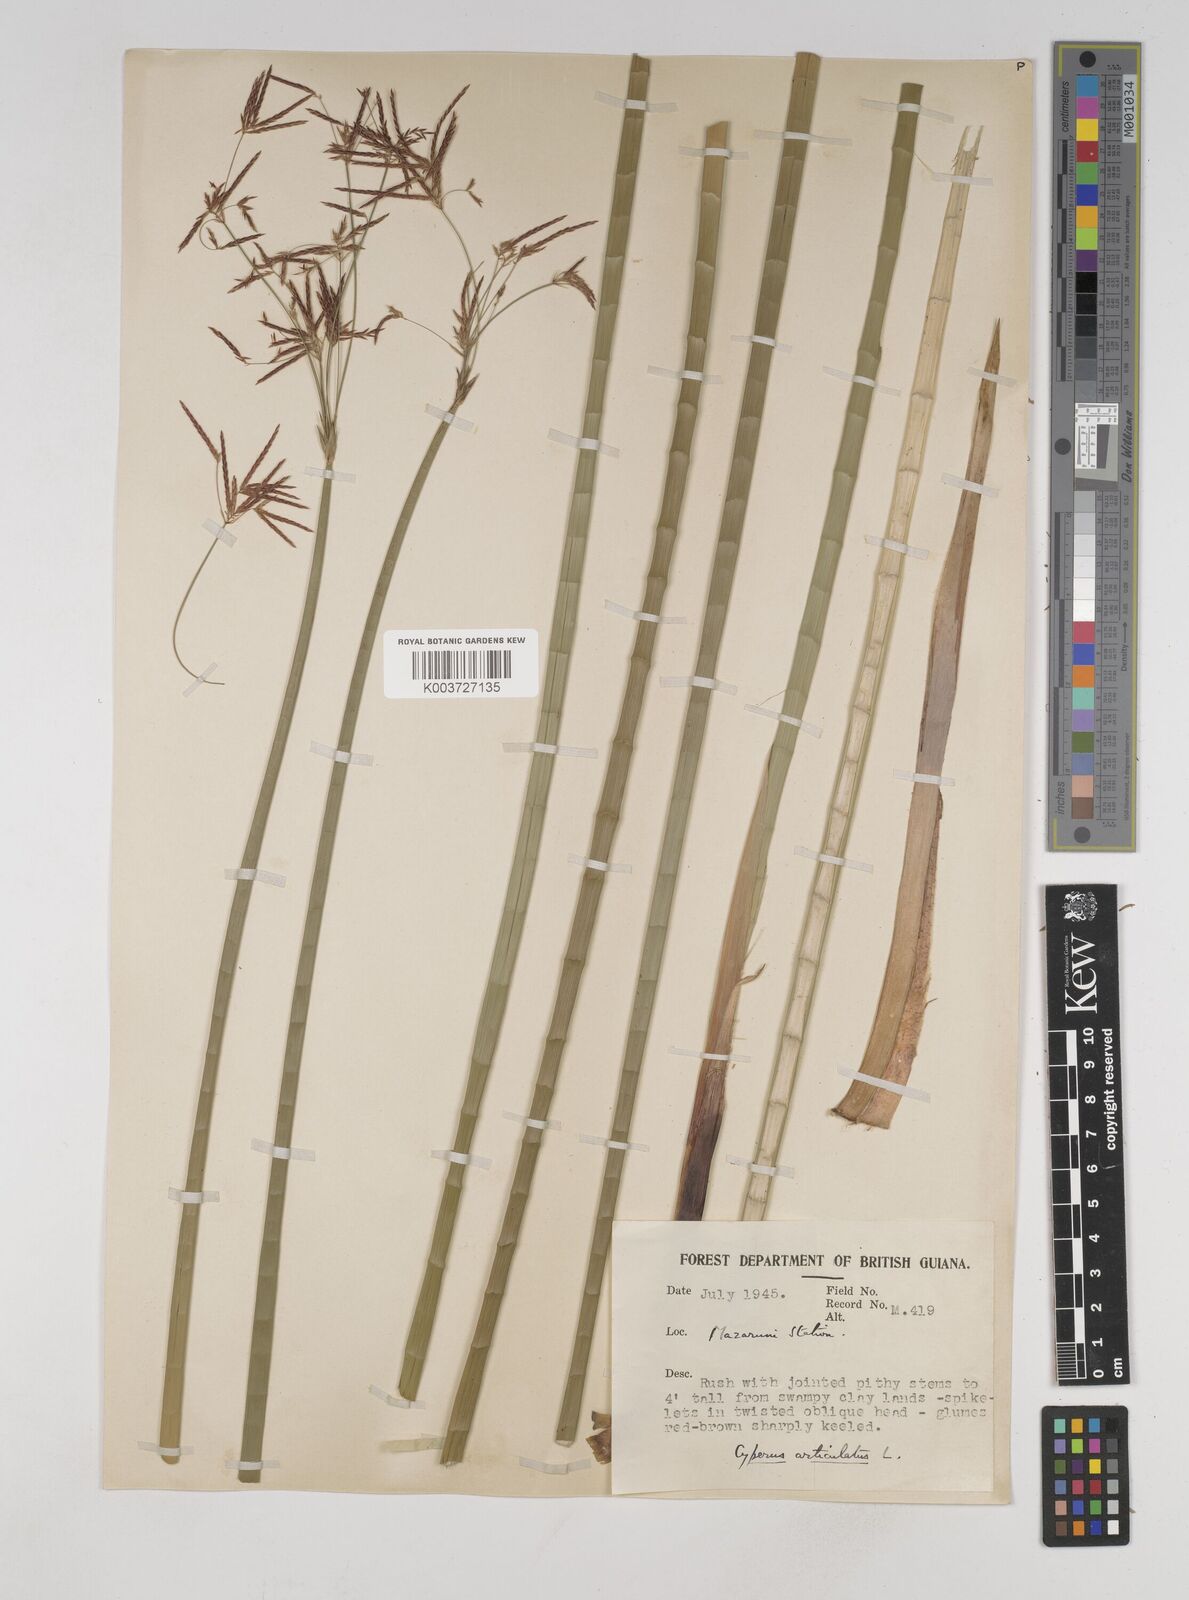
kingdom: Plantae
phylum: Tracheophyta
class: Liliopsida
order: Poales
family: Cyperaceae
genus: Cyperus
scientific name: Cyperus articulatus
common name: Jointed flatsedge
